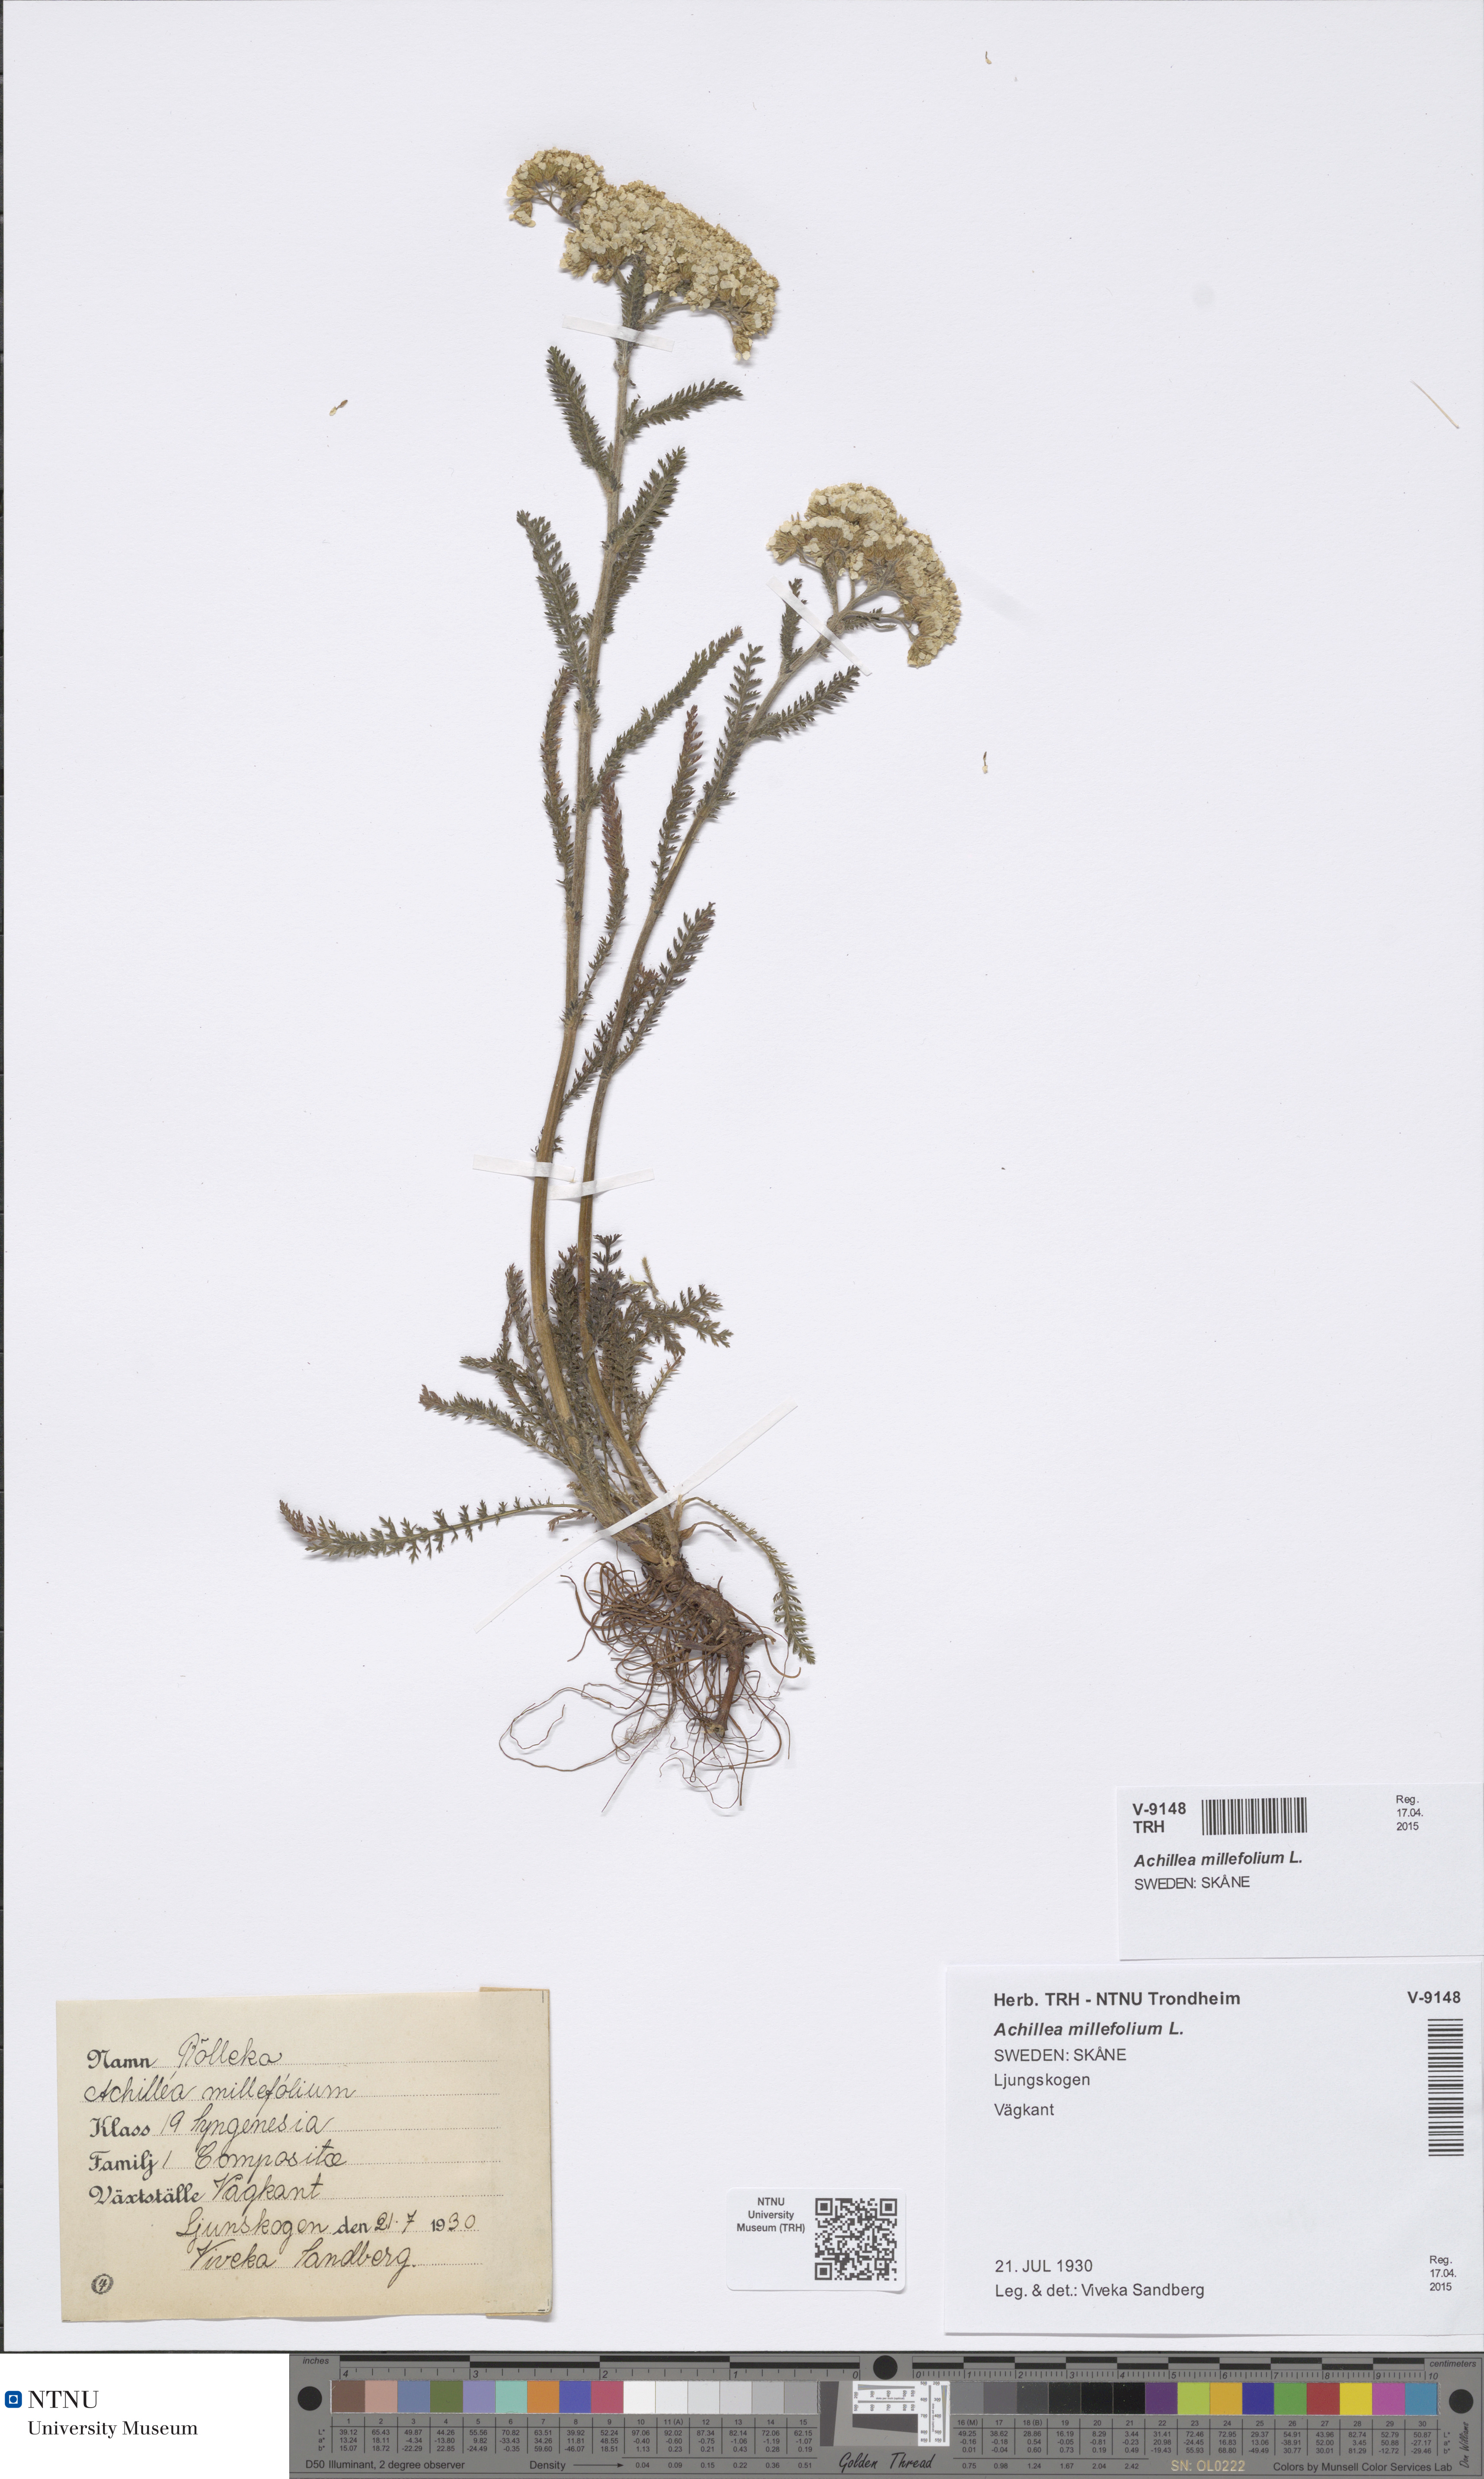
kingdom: Plantae
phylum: Tracheophyta
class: Magnoliopsida
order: Asterales
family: Asteraceae
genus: Achillea
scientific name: Achillea millefolium
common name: Yarrow
